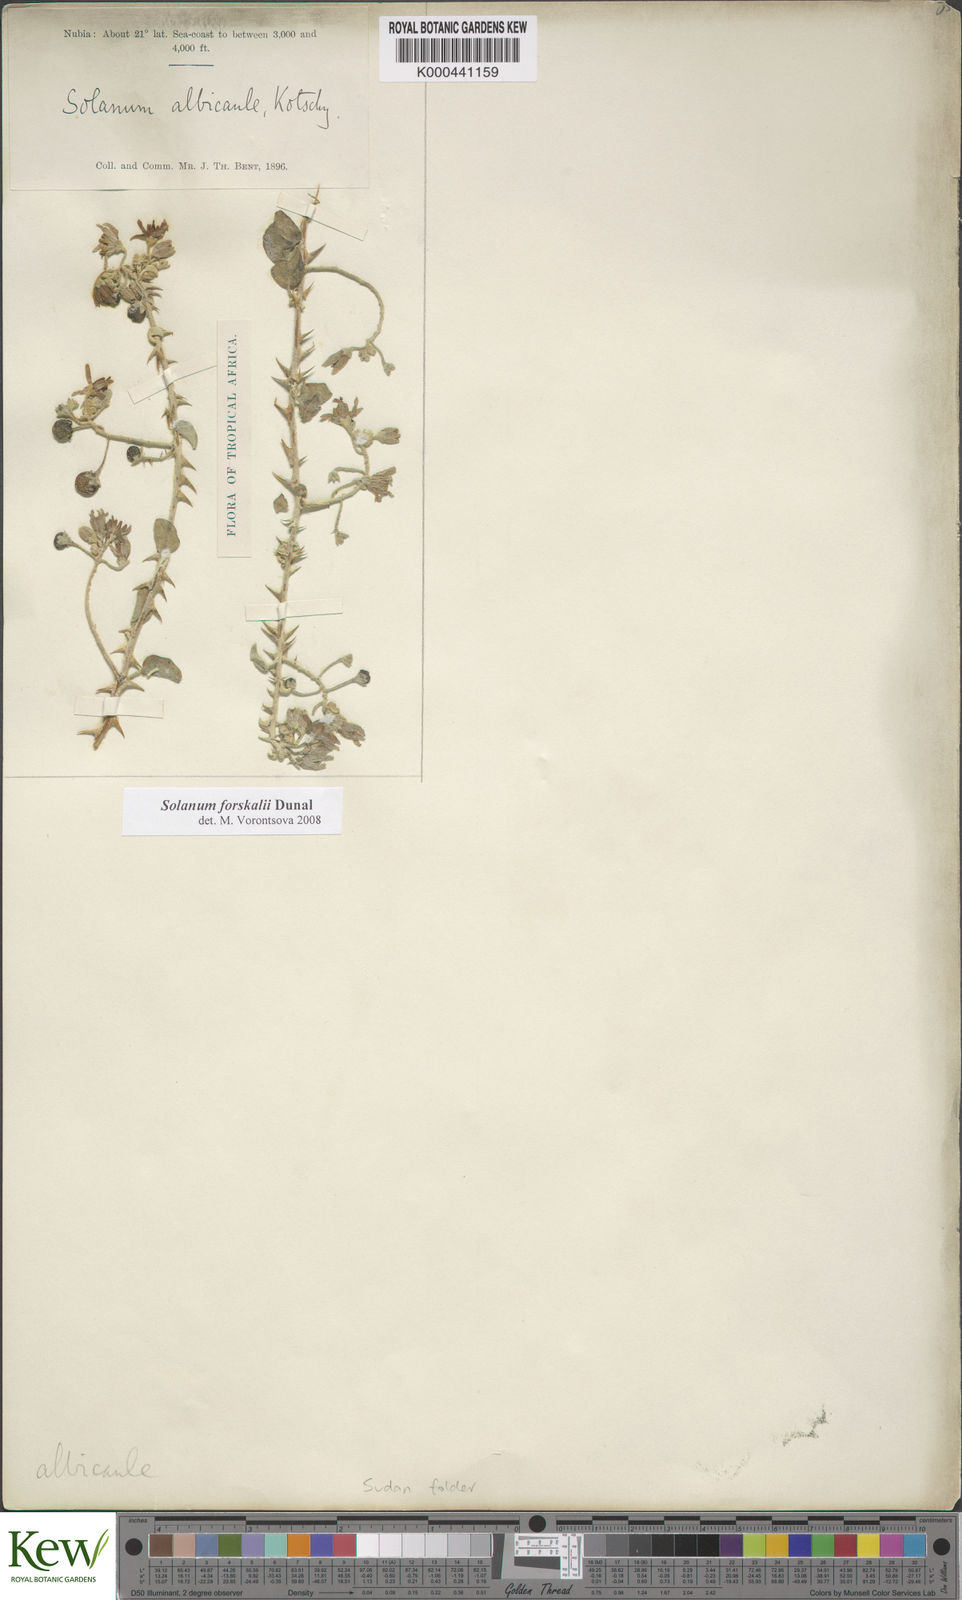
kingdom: Plantae
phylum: Tracheophyta
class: Magnoliopsida
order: Solanales
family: Solanaceae
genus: Solanum
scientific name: Solanum
